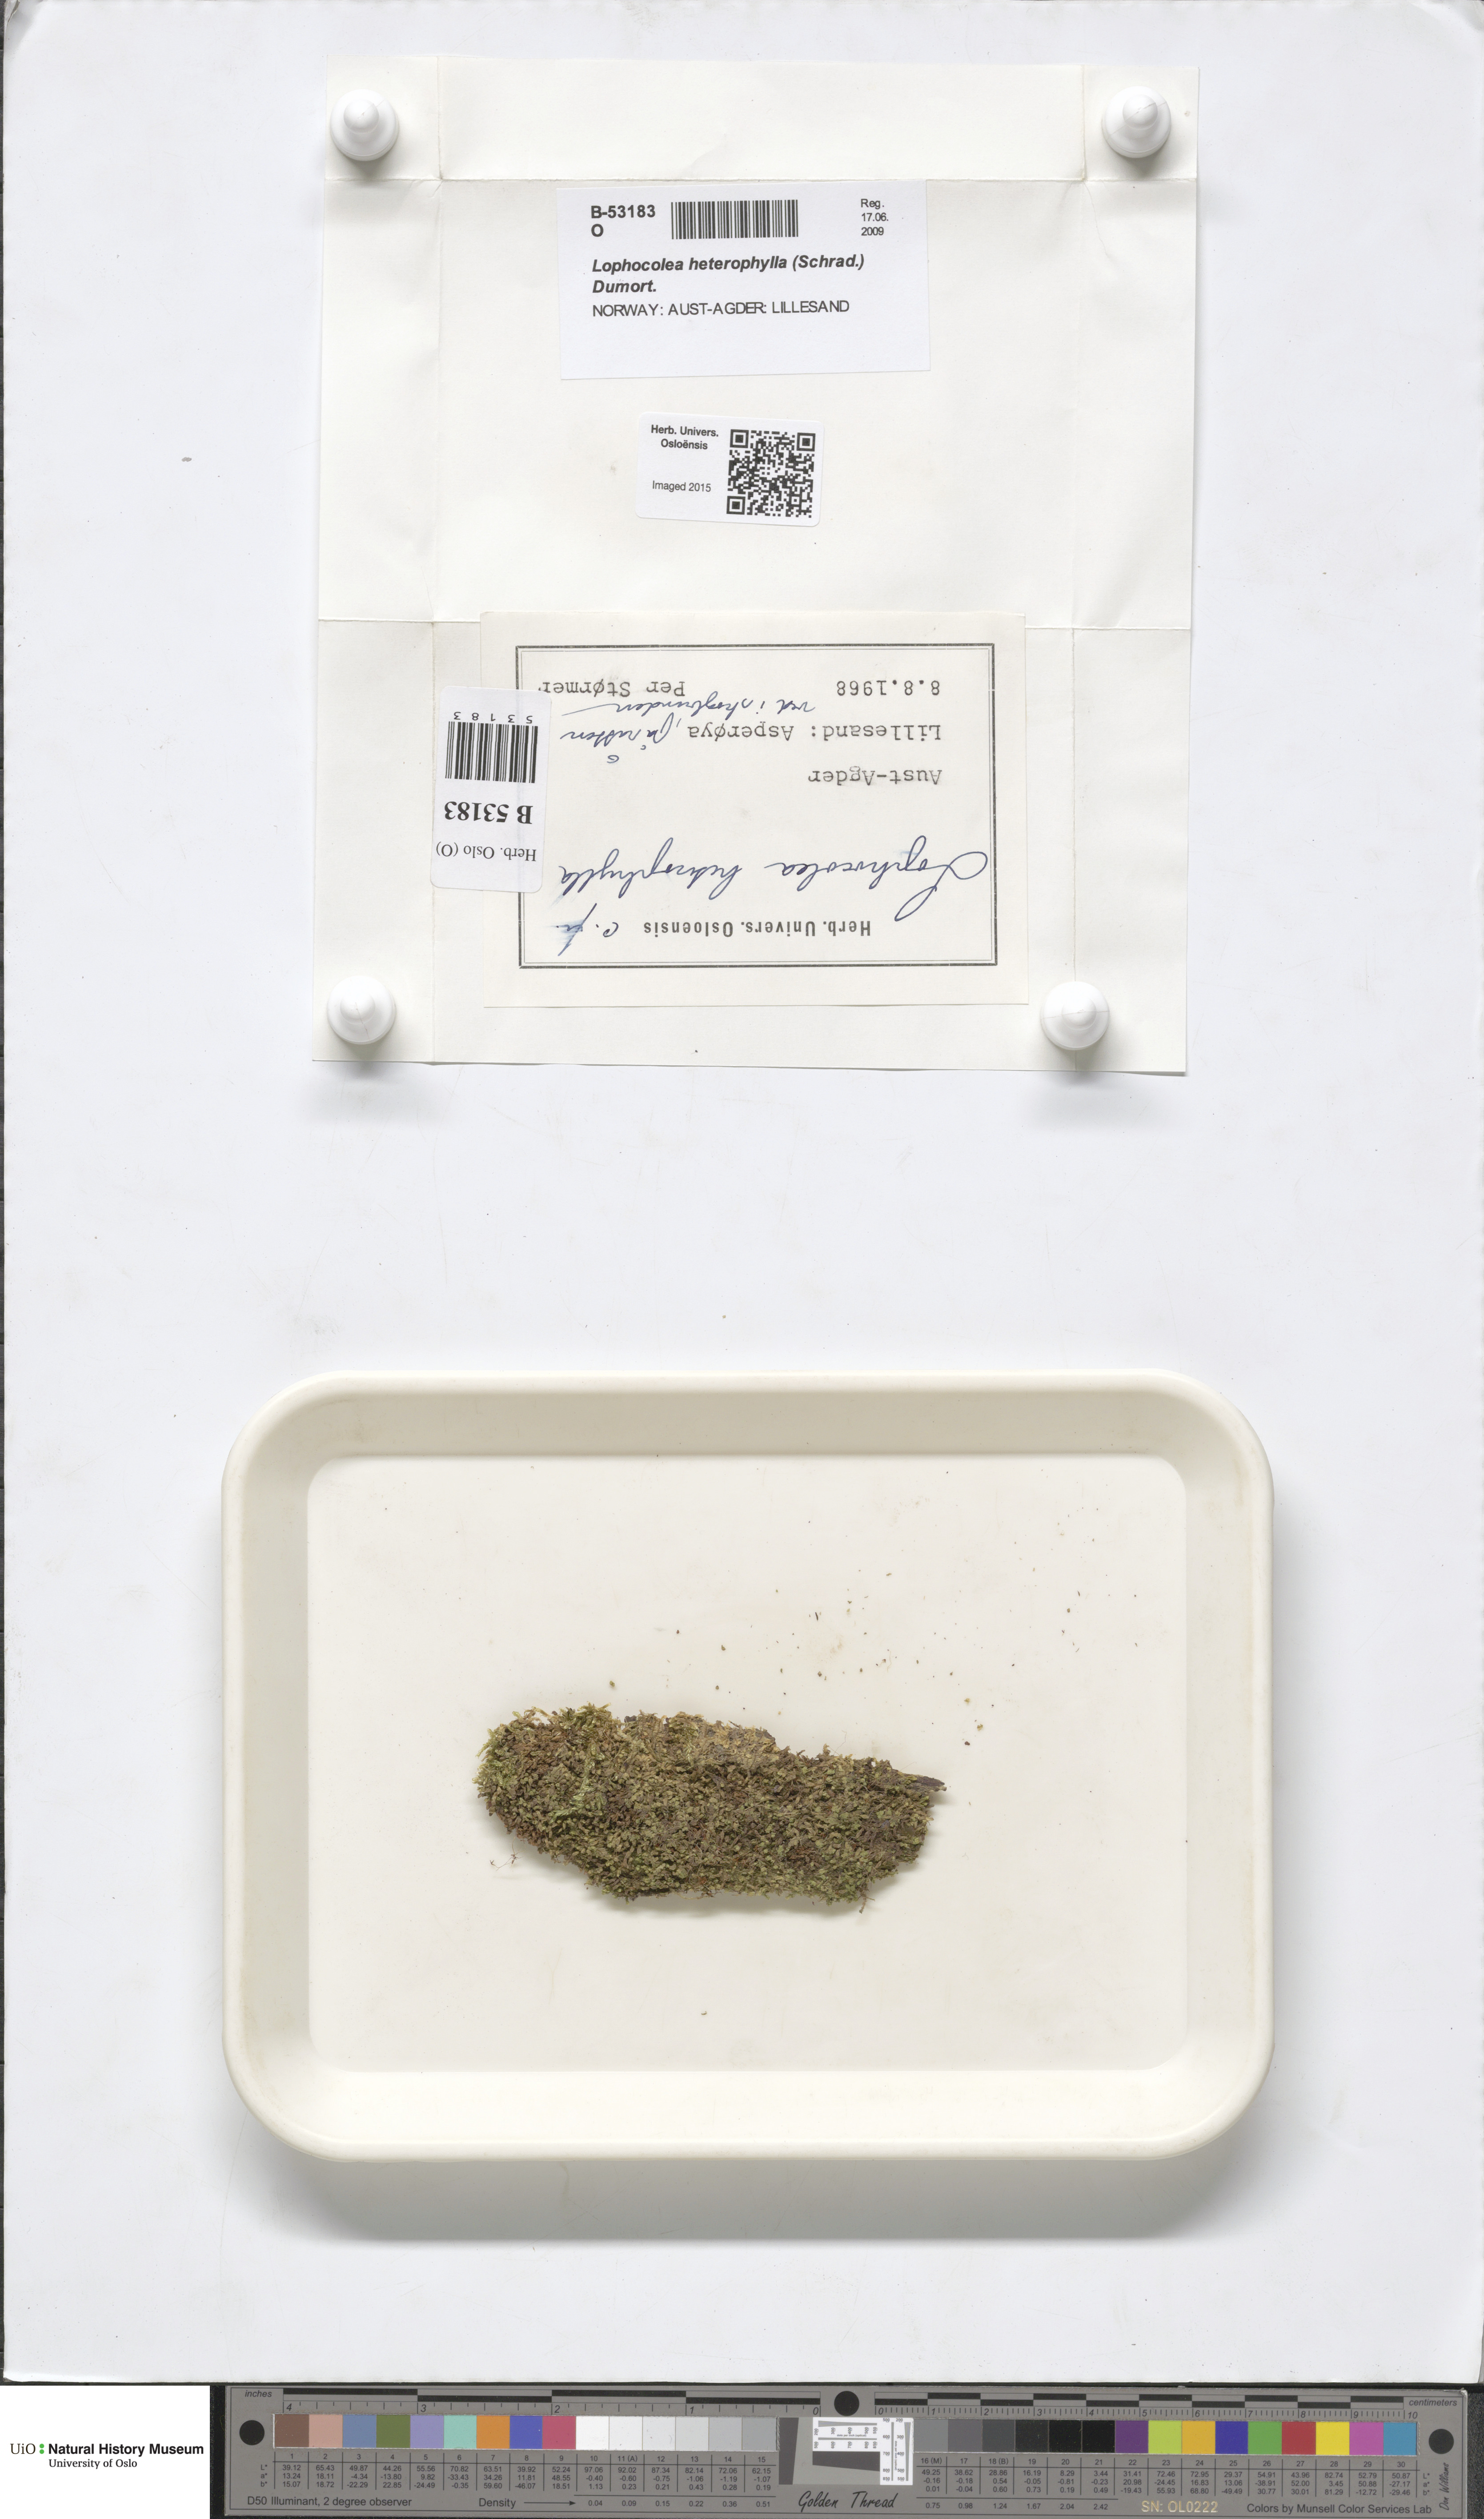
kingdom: Plantae
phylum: Marchantiophyta
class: Jungermanniopsida
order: Jungermanniales
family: Lophocoleaceae
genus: Lophocolea
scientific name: Lophocolea heterophylla
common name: Variable-leaved crestwort
